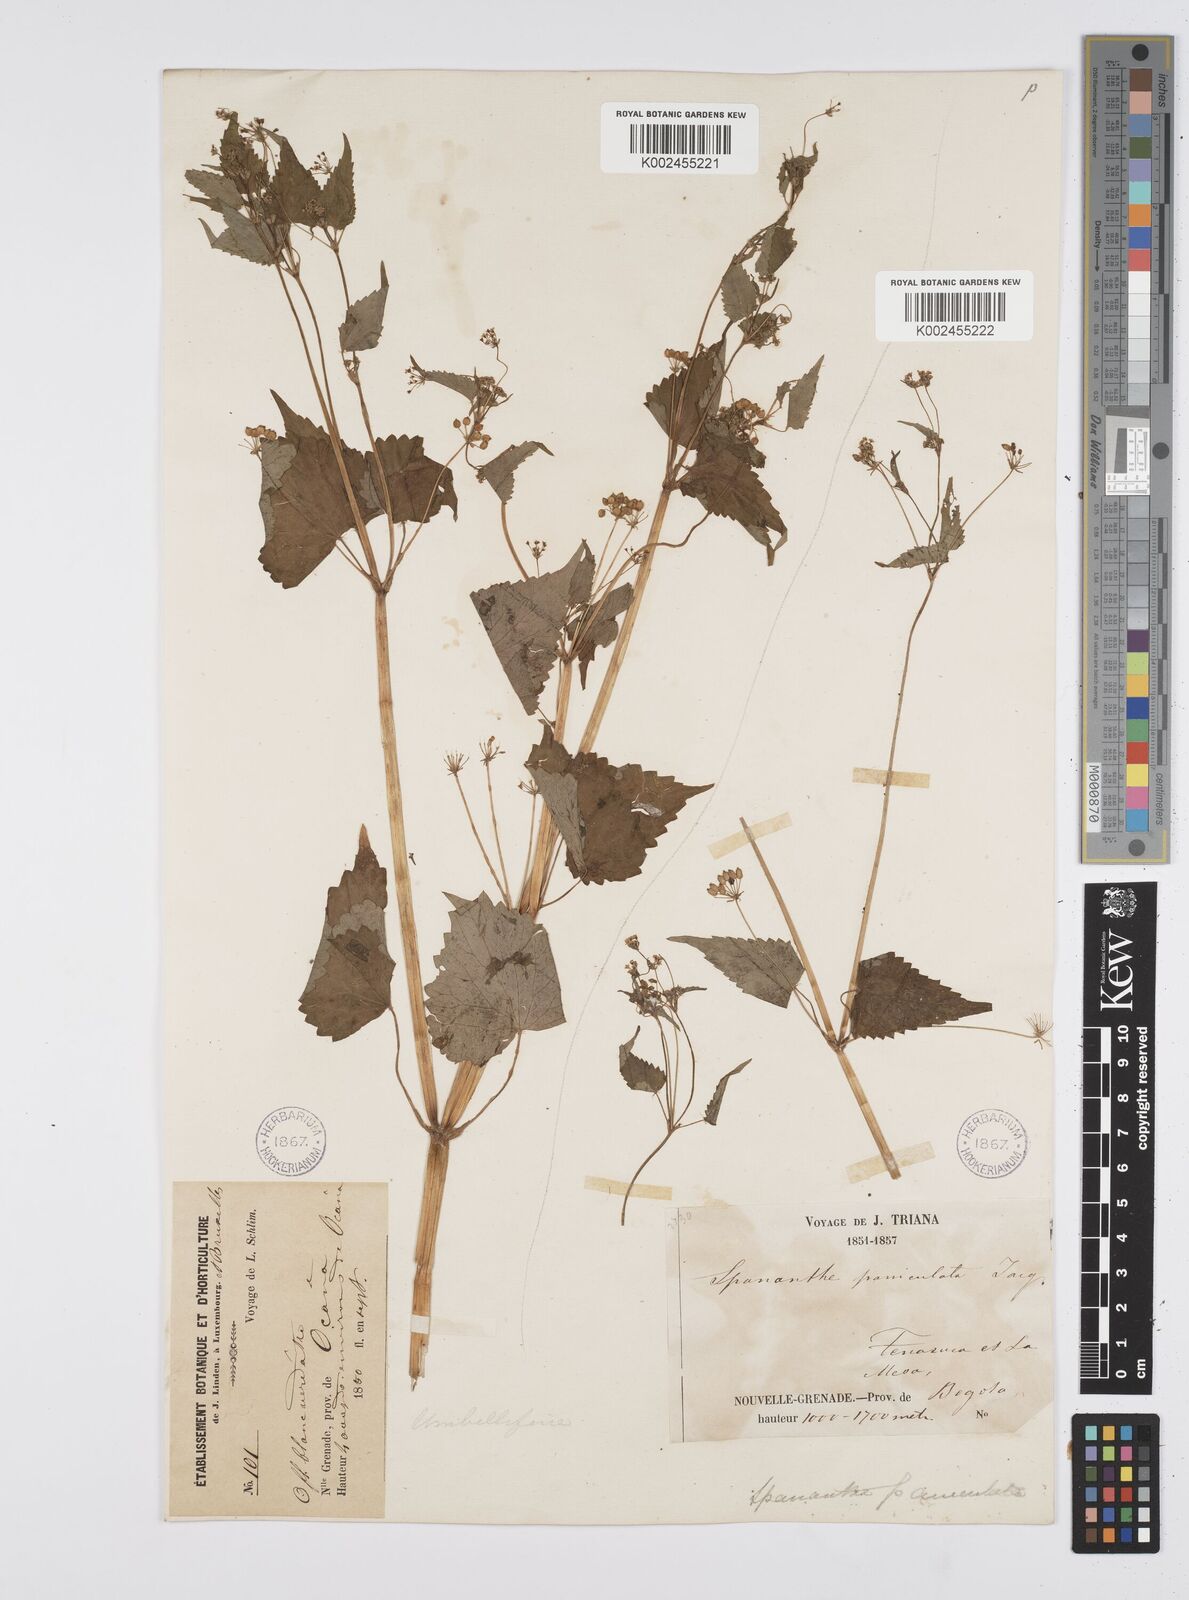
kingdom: Plantae
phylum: Tracheophyta
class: Magnoliopsida
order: Apiales
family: Apiaceae
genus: Azorella
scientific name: Azorella
